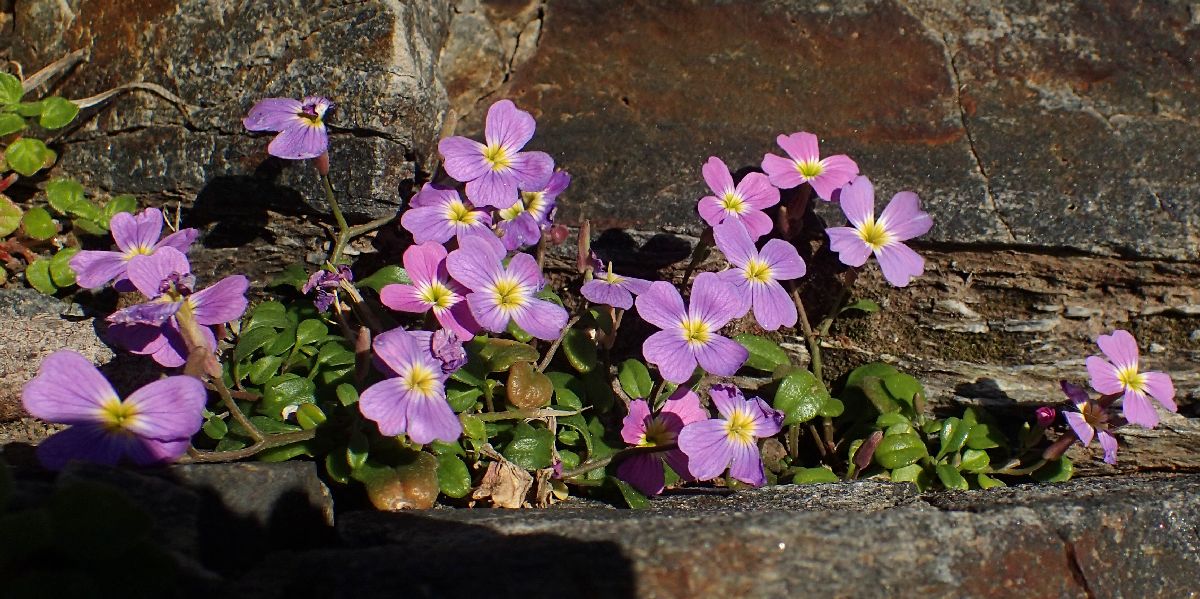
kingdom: Plantae
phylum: Tracheophyta
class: Magnoliopsida
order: Brassicales
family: Brassicaceae
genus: Malcolmia
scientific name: Malcolmia flexuosa
